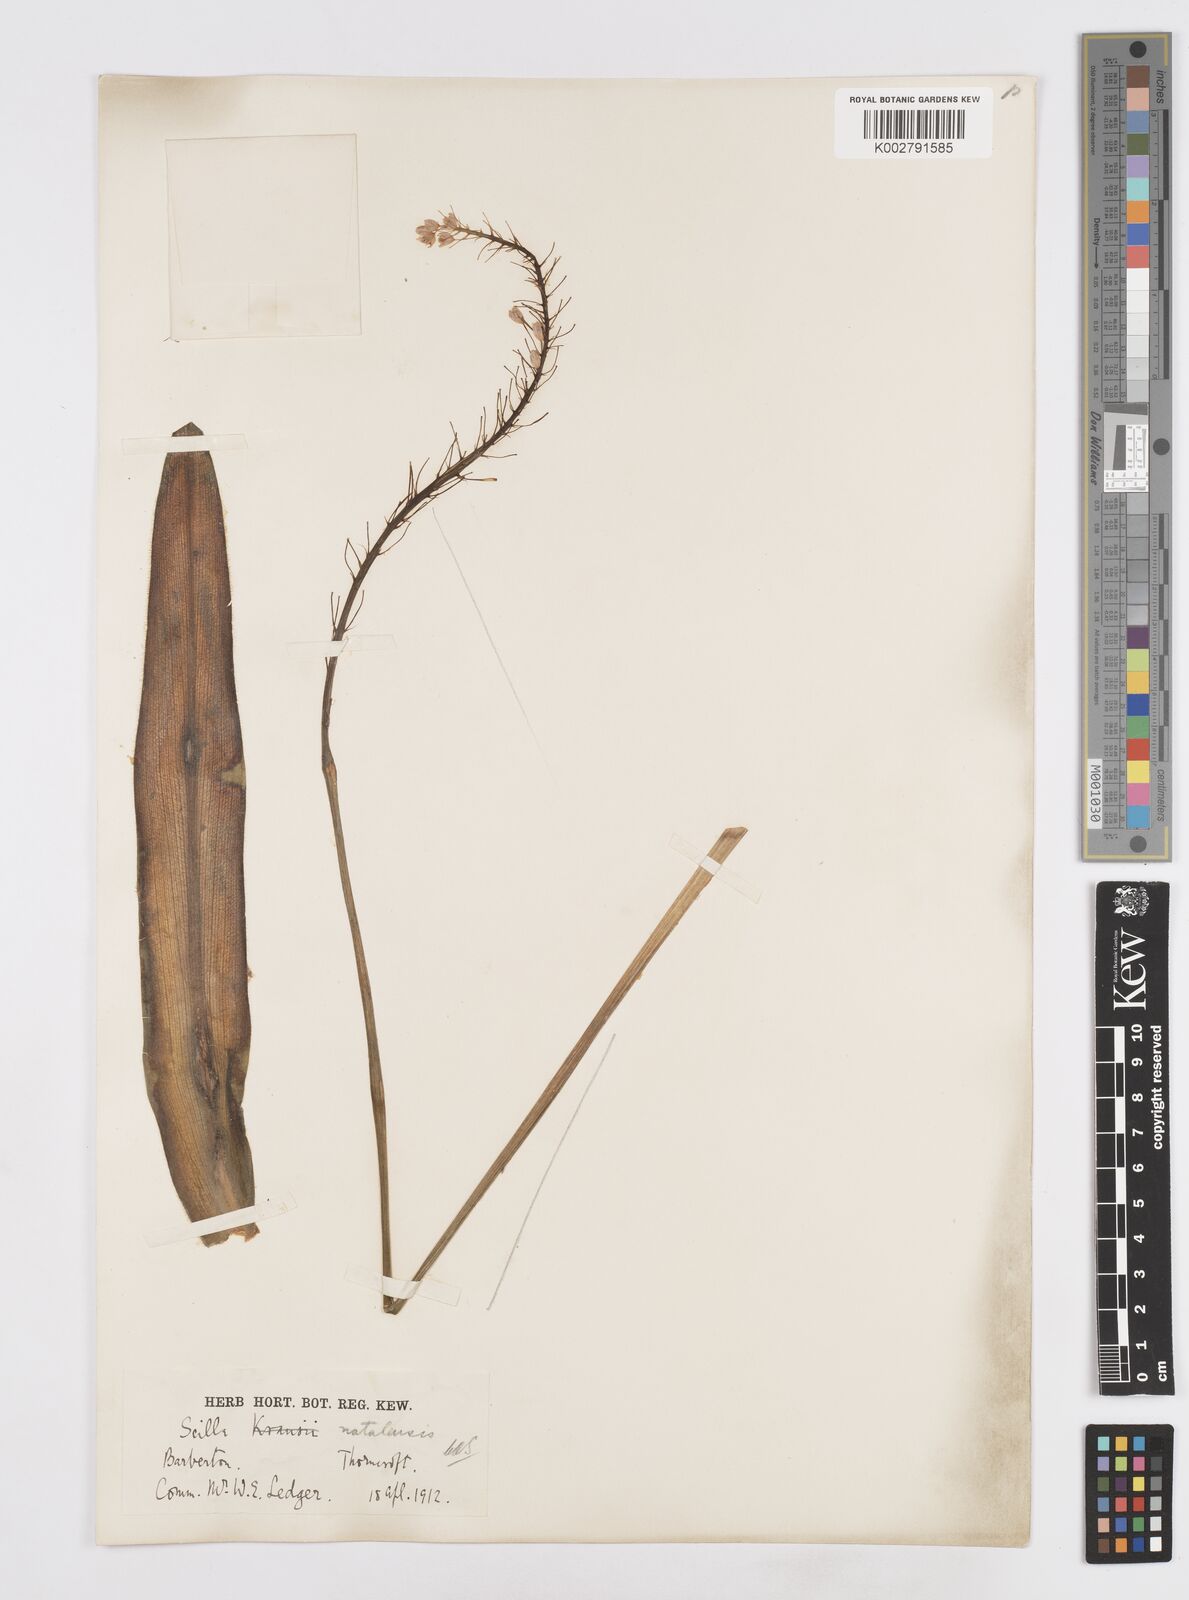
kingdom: Plantae
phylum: Tracheophyta
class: Liliopsida
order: Asparagales
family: Asparagaceae
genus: Merwilla
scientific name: Merwilla plumbea
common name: Blue-squill
